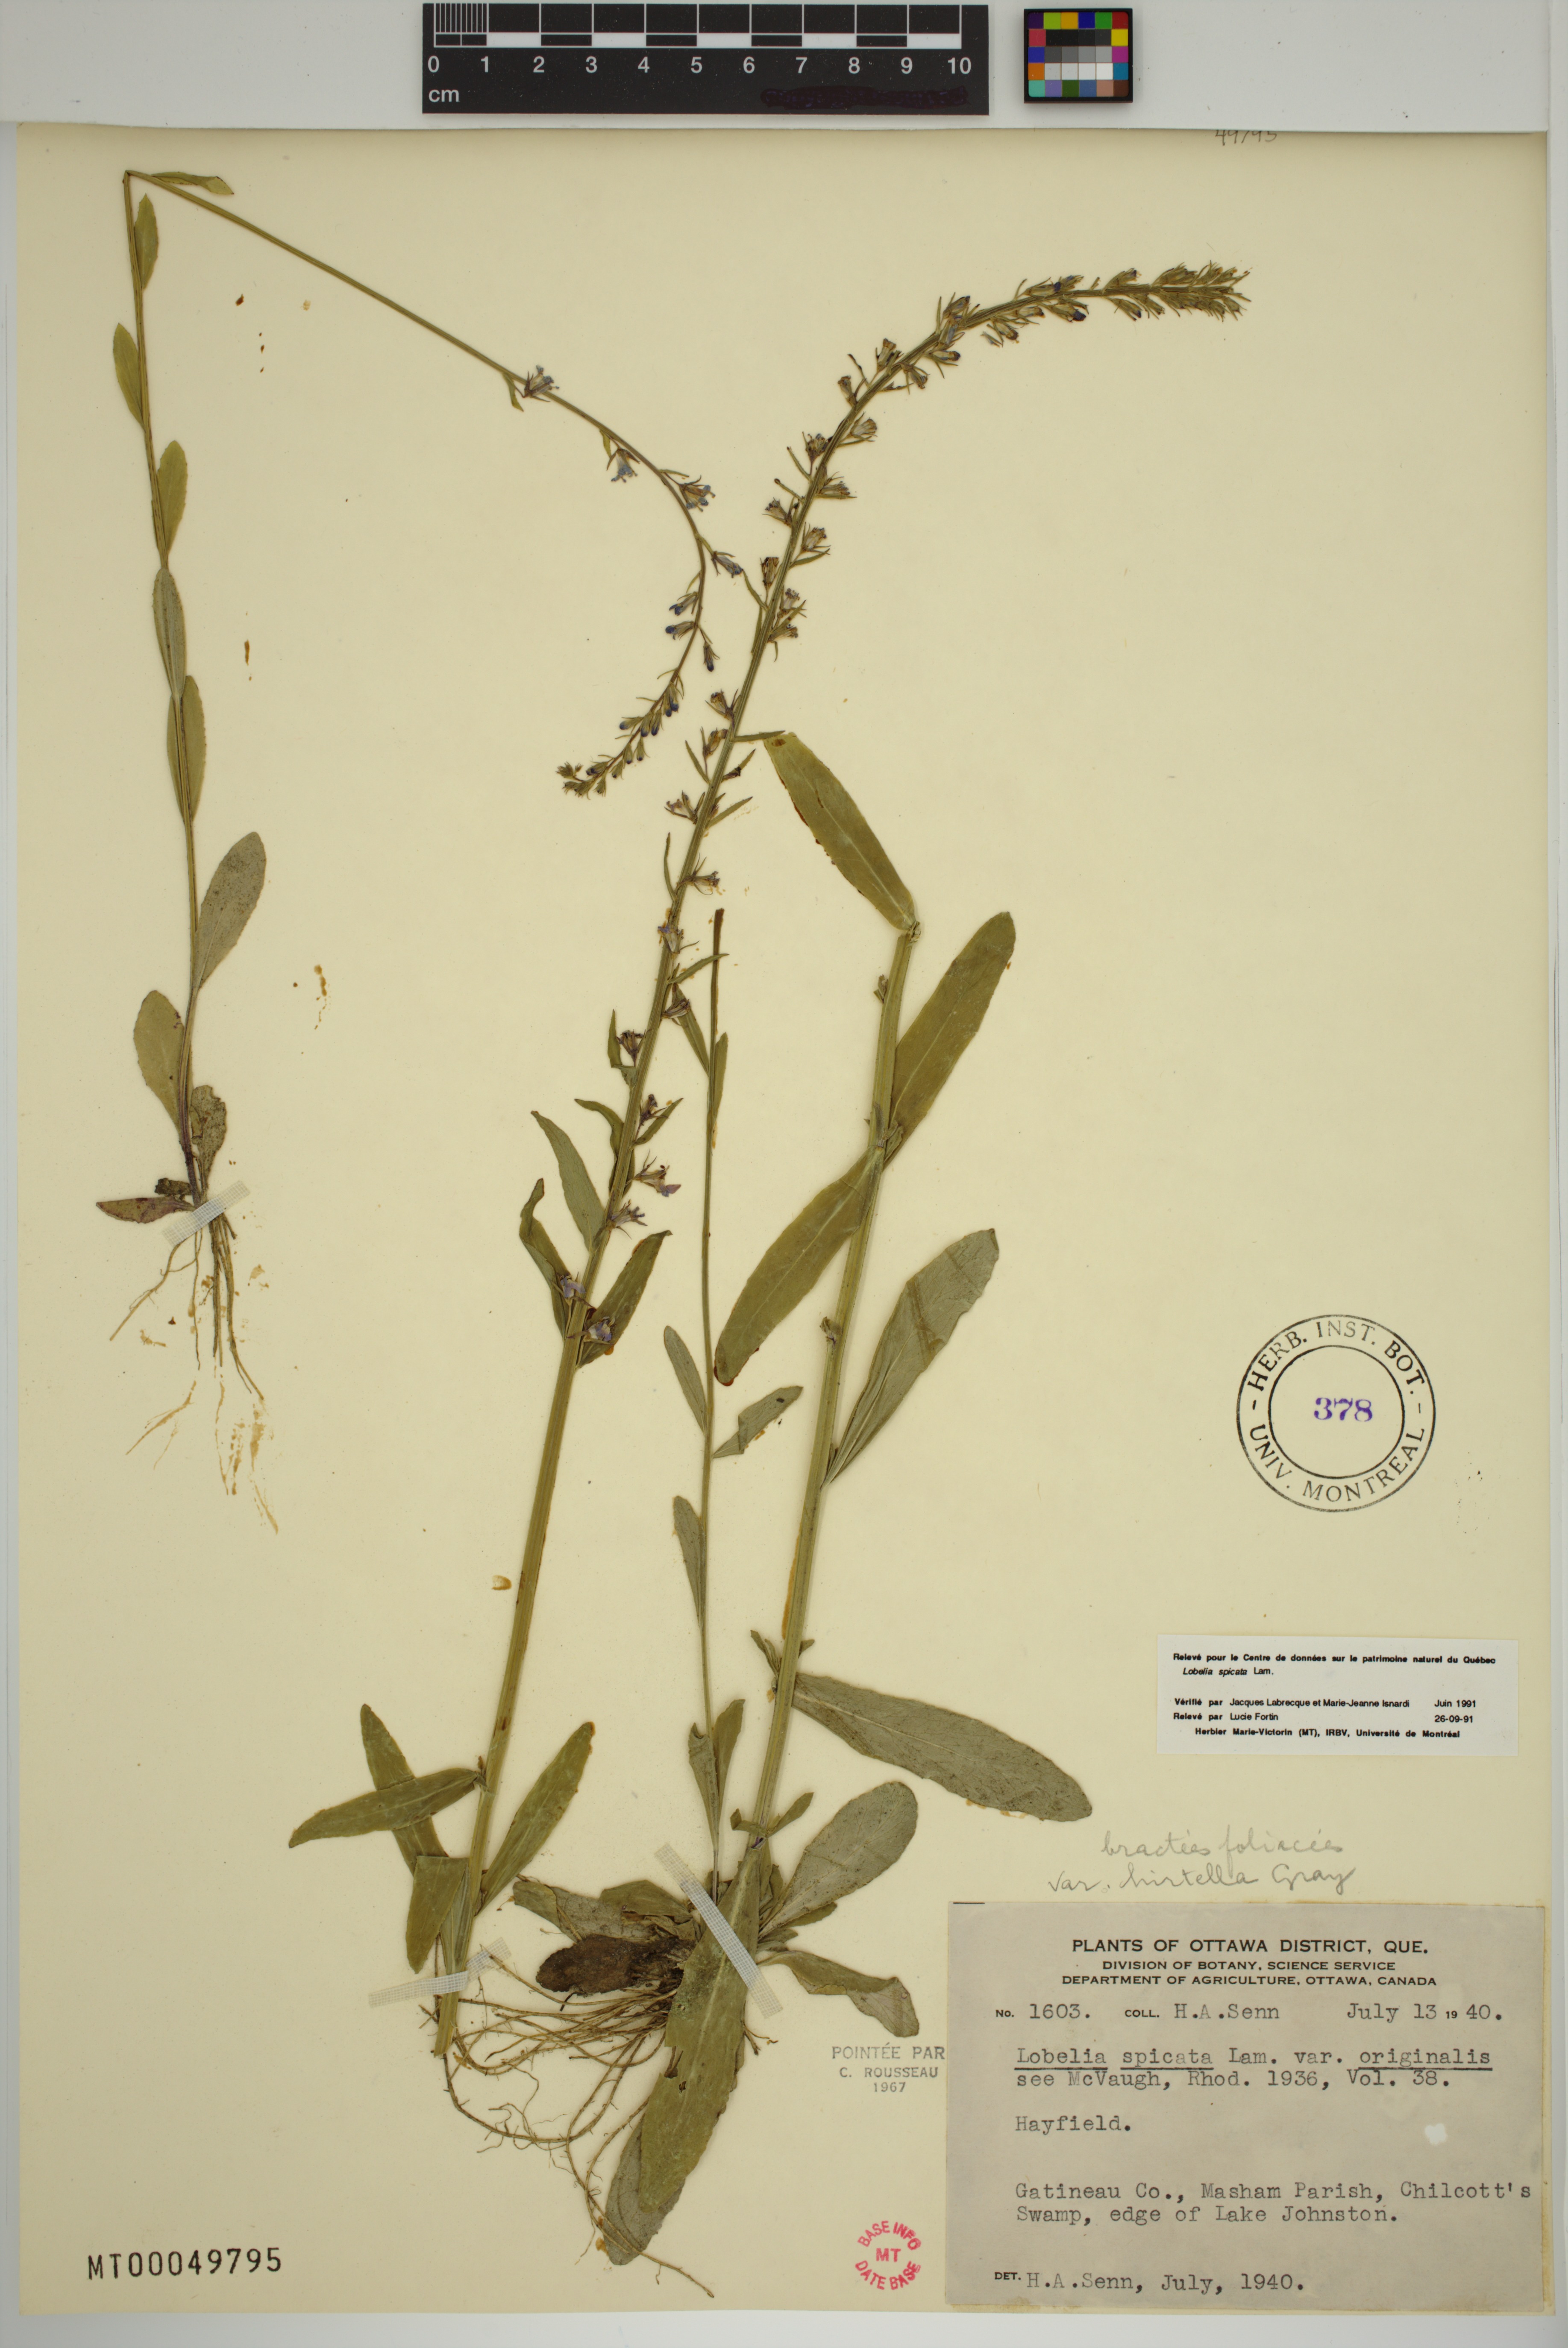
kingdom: Plantae
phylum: Tracheophyta
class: Magnoliopsida
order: Asterales
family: Campanulaceae
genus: Lobelia
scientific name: Lobelia spicata
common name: Pale-spike lobelia
